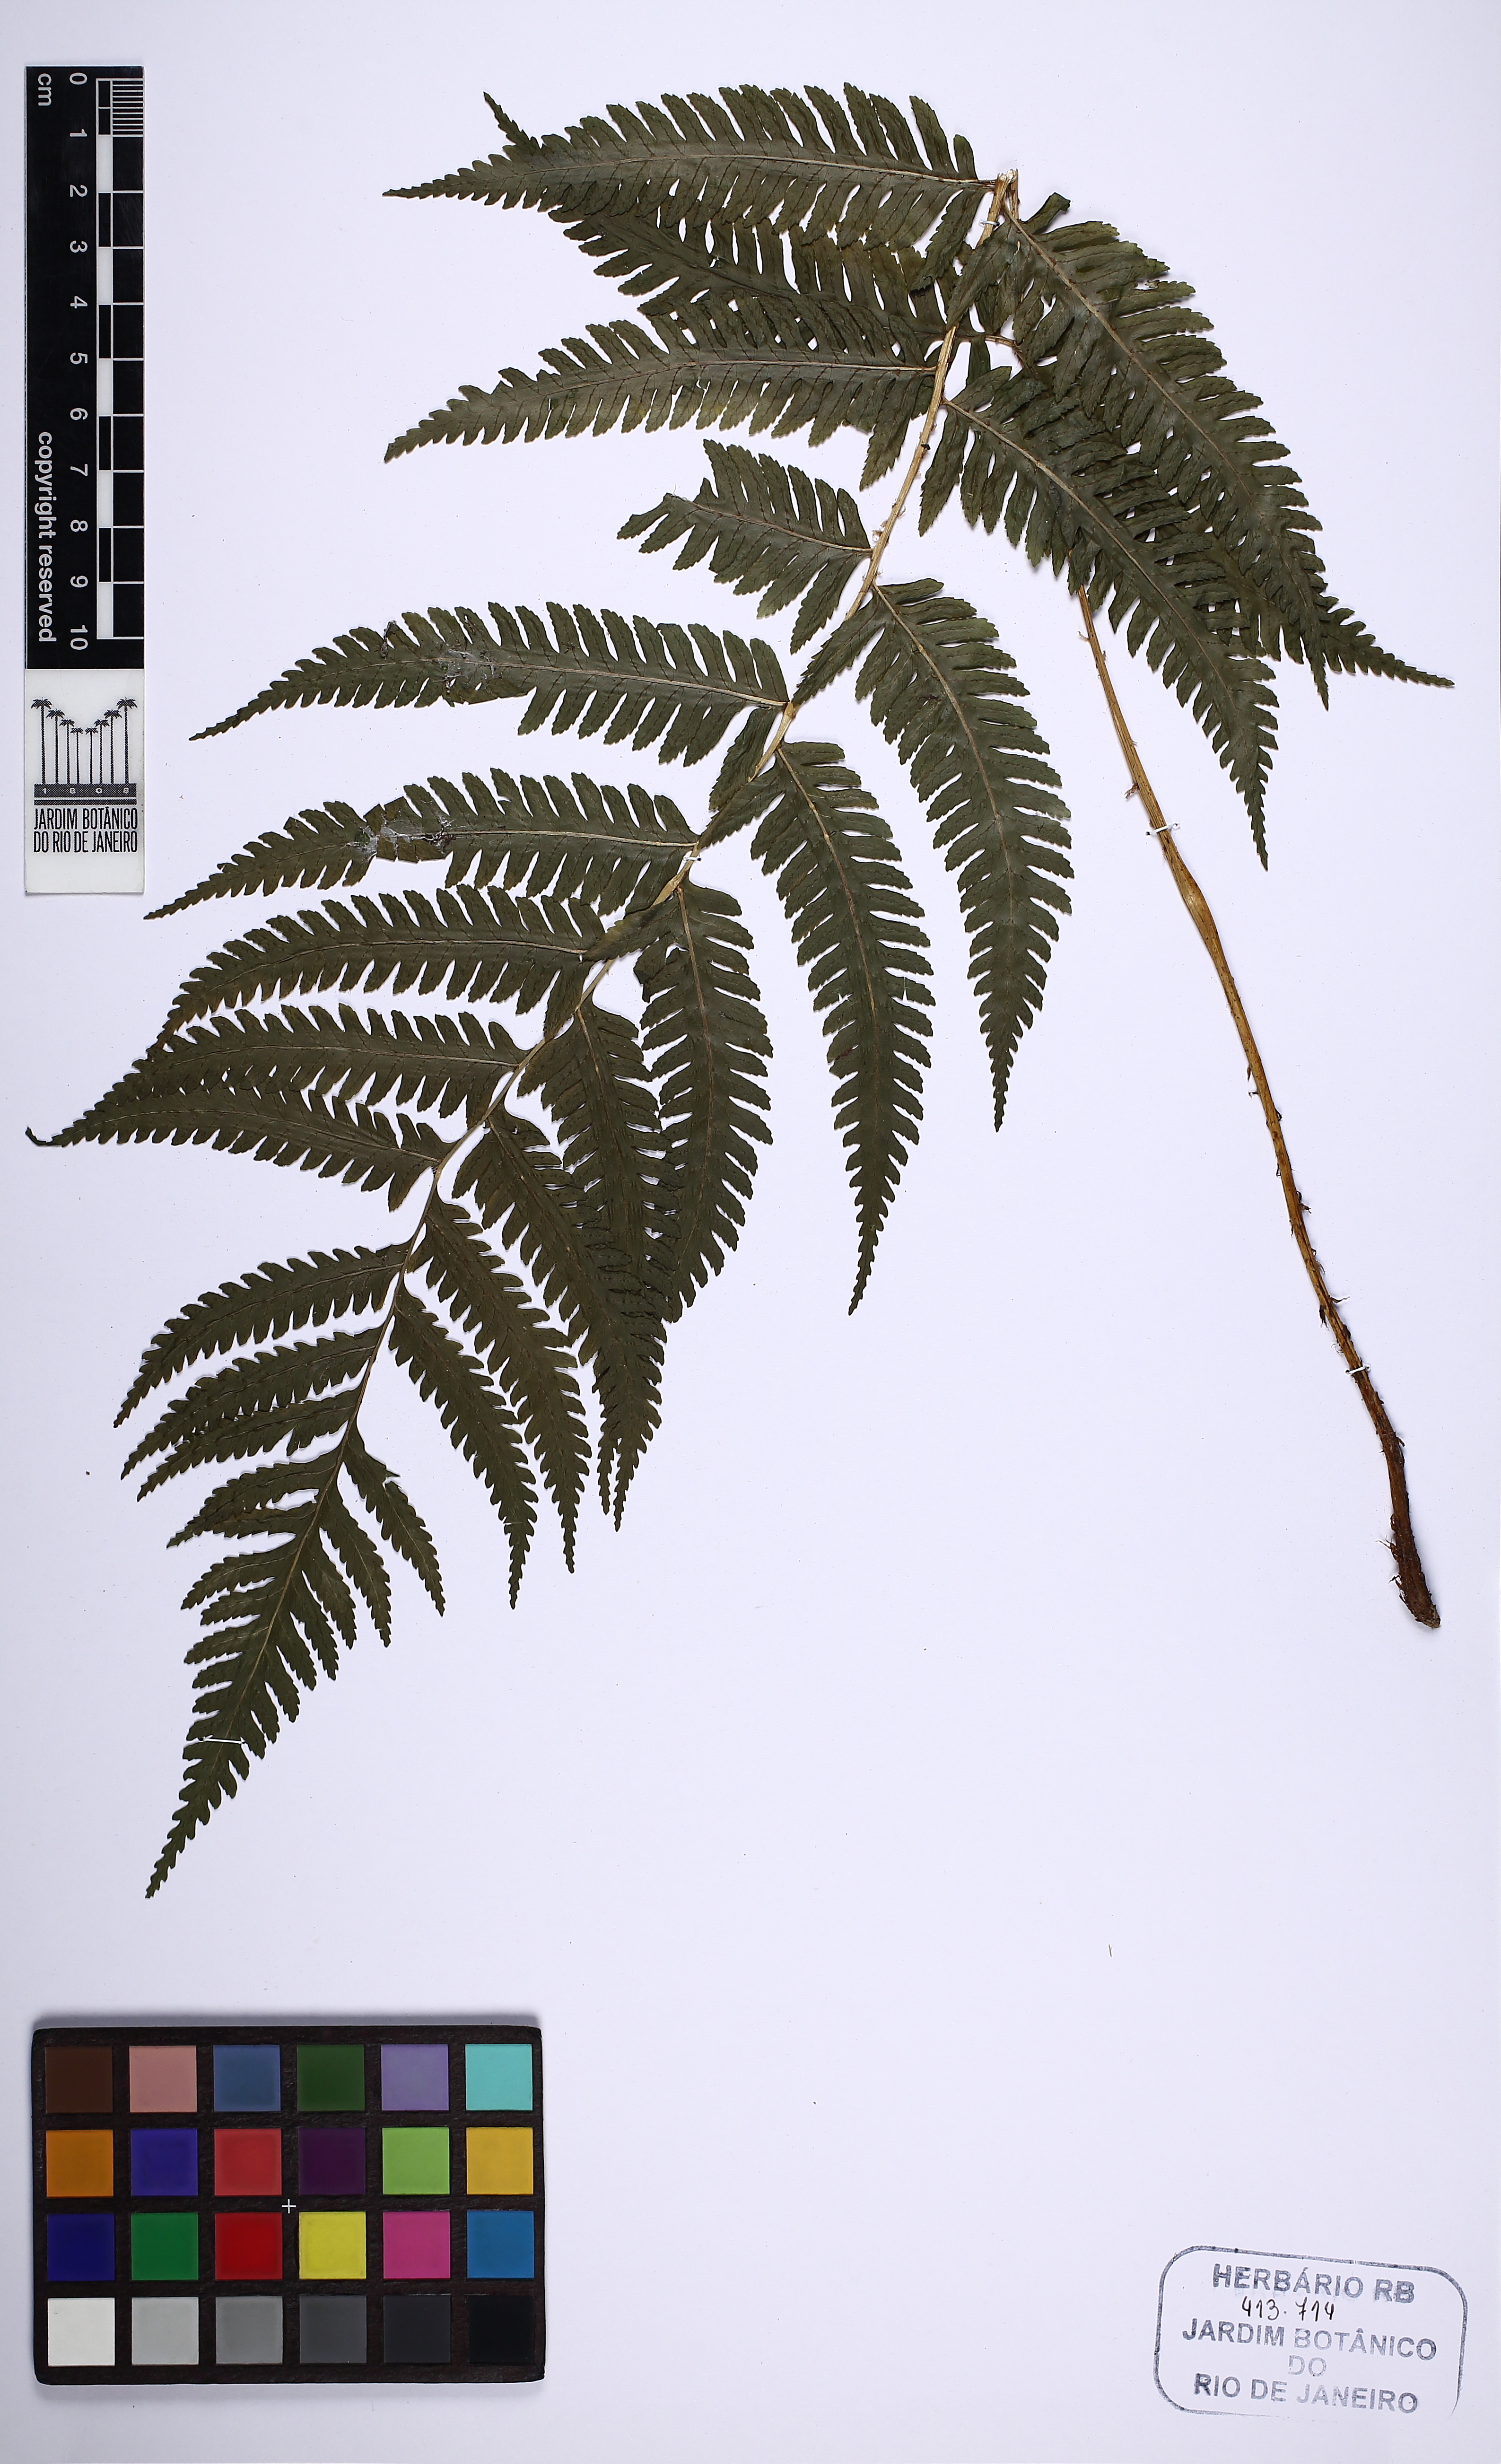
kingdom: Plantae
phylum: Tracheophyta
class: Polypodiopsida
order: Polypodiales
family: Dryopteridaceae
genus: Stigmatopteris
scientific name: Stigmatopteris caudata
